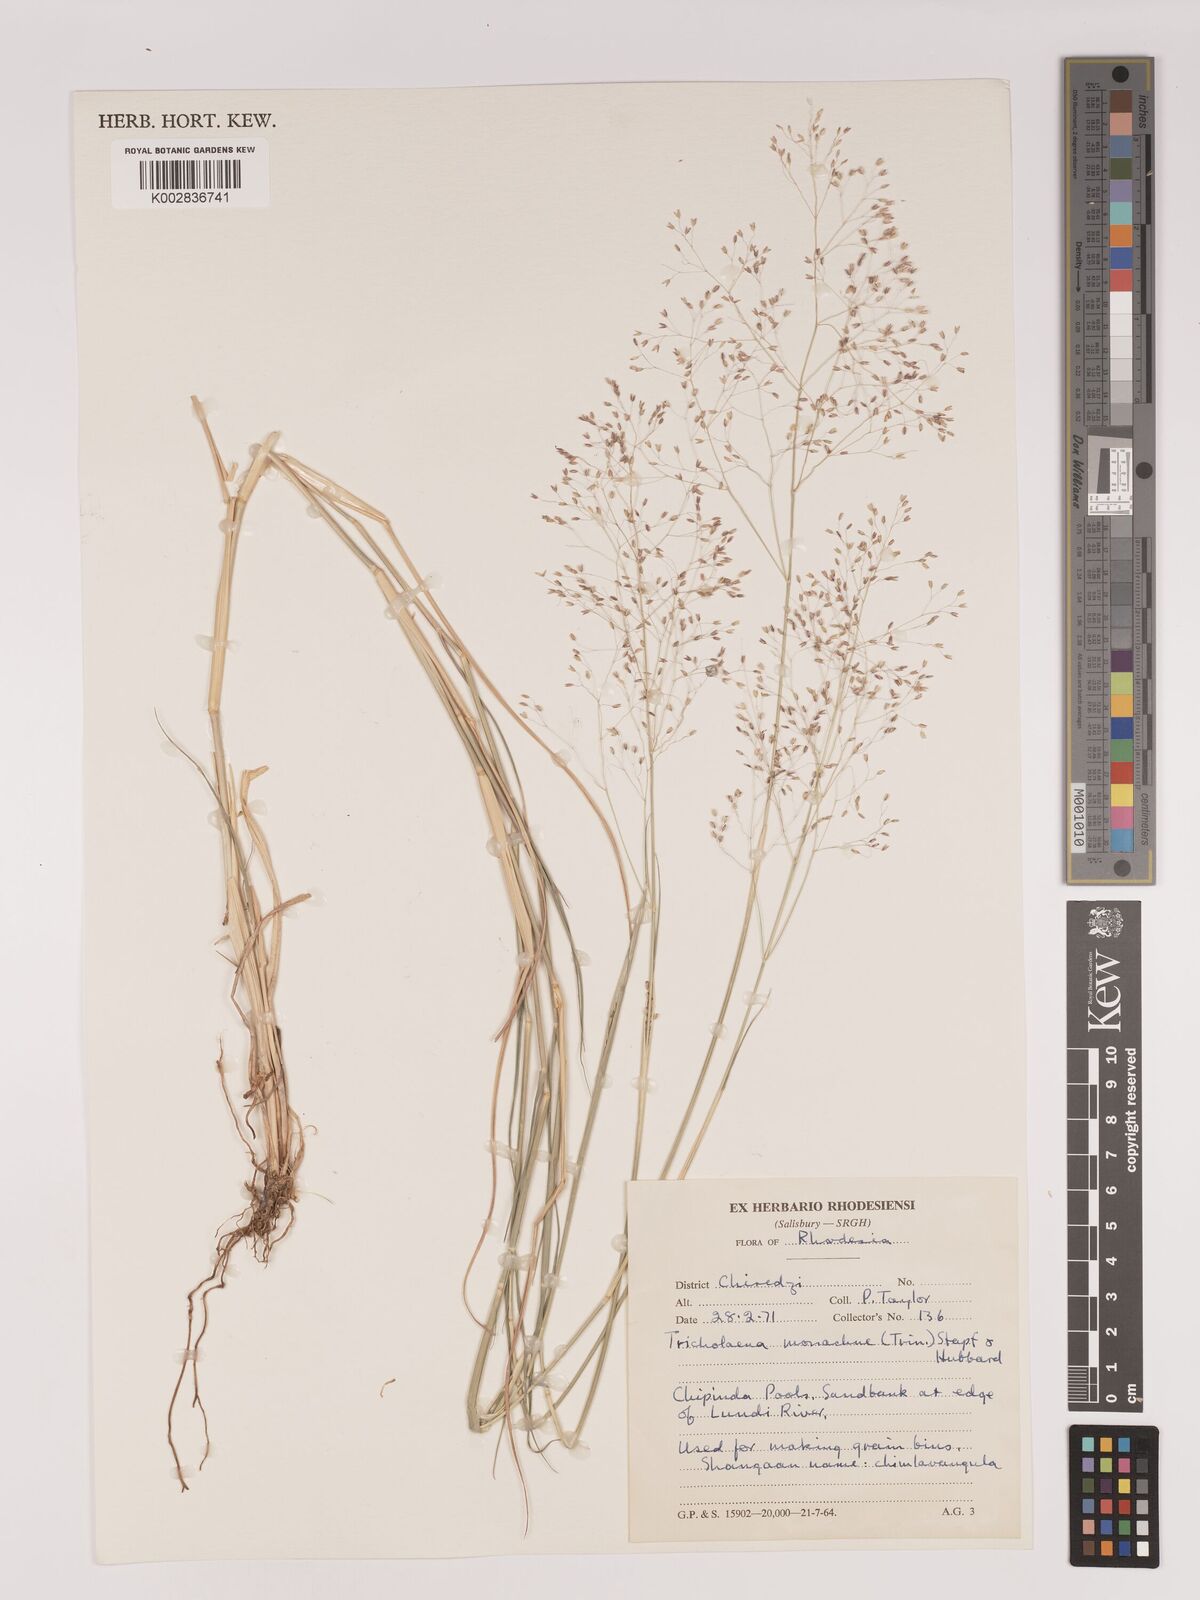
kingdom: Plantae
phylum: Tracheophyta
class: Liliopsida
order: Poales
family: Poaceae
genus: Tricholaena
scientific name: Tricholaena monachne
